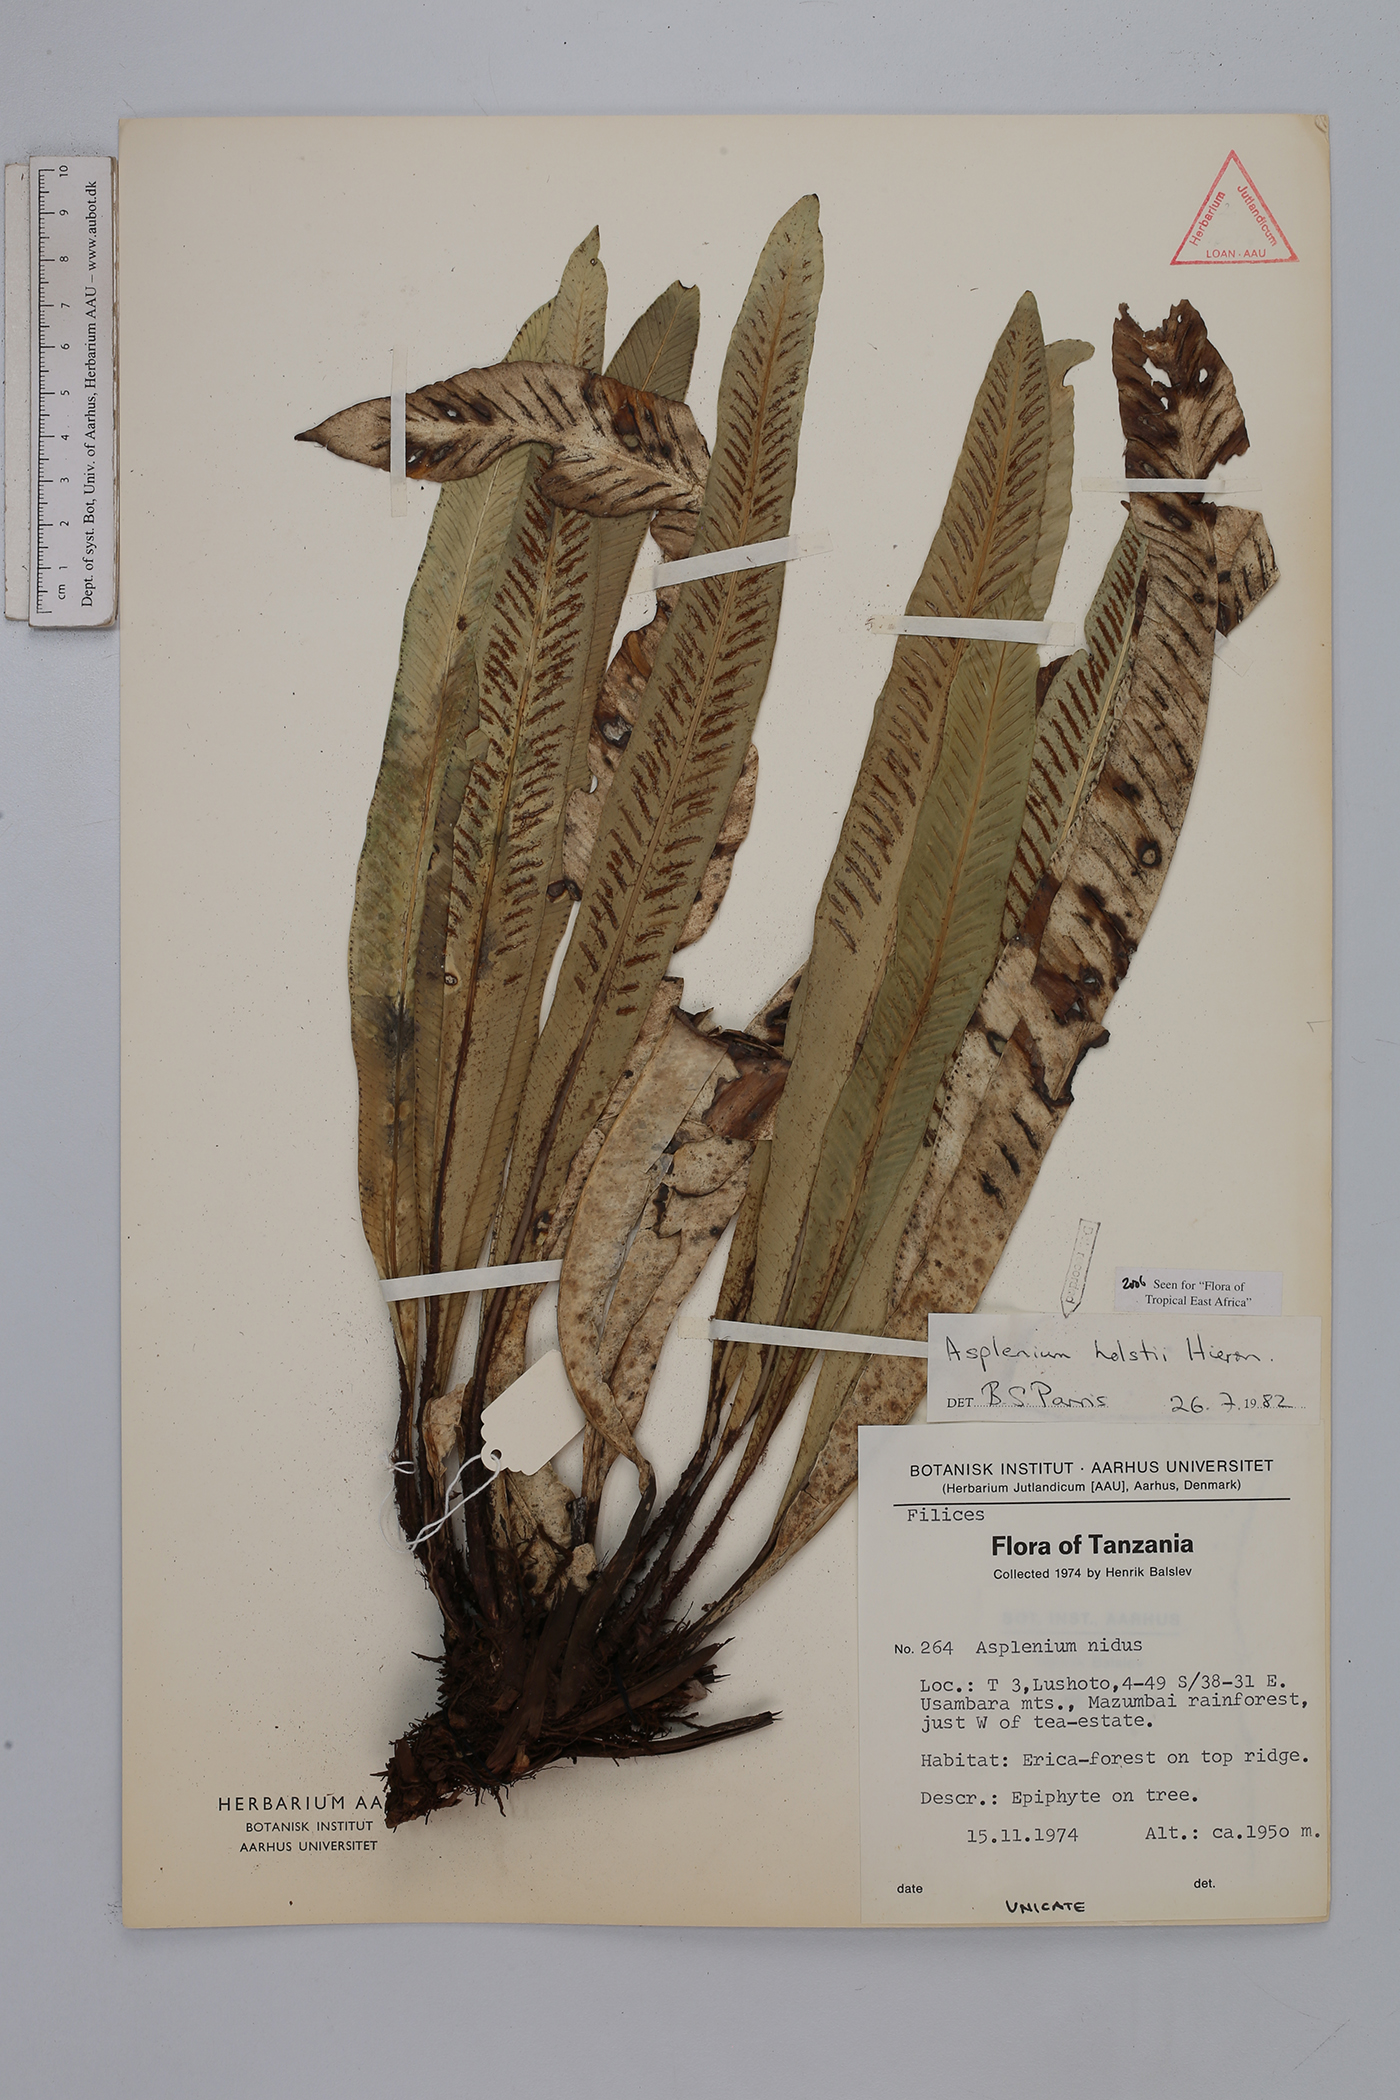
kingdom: Plantae
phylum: Tracheophyta
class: Polypodiopsida
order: Polypodiales
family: Aspleniaceae
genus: Asplenium
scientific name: Asplenium holstii
